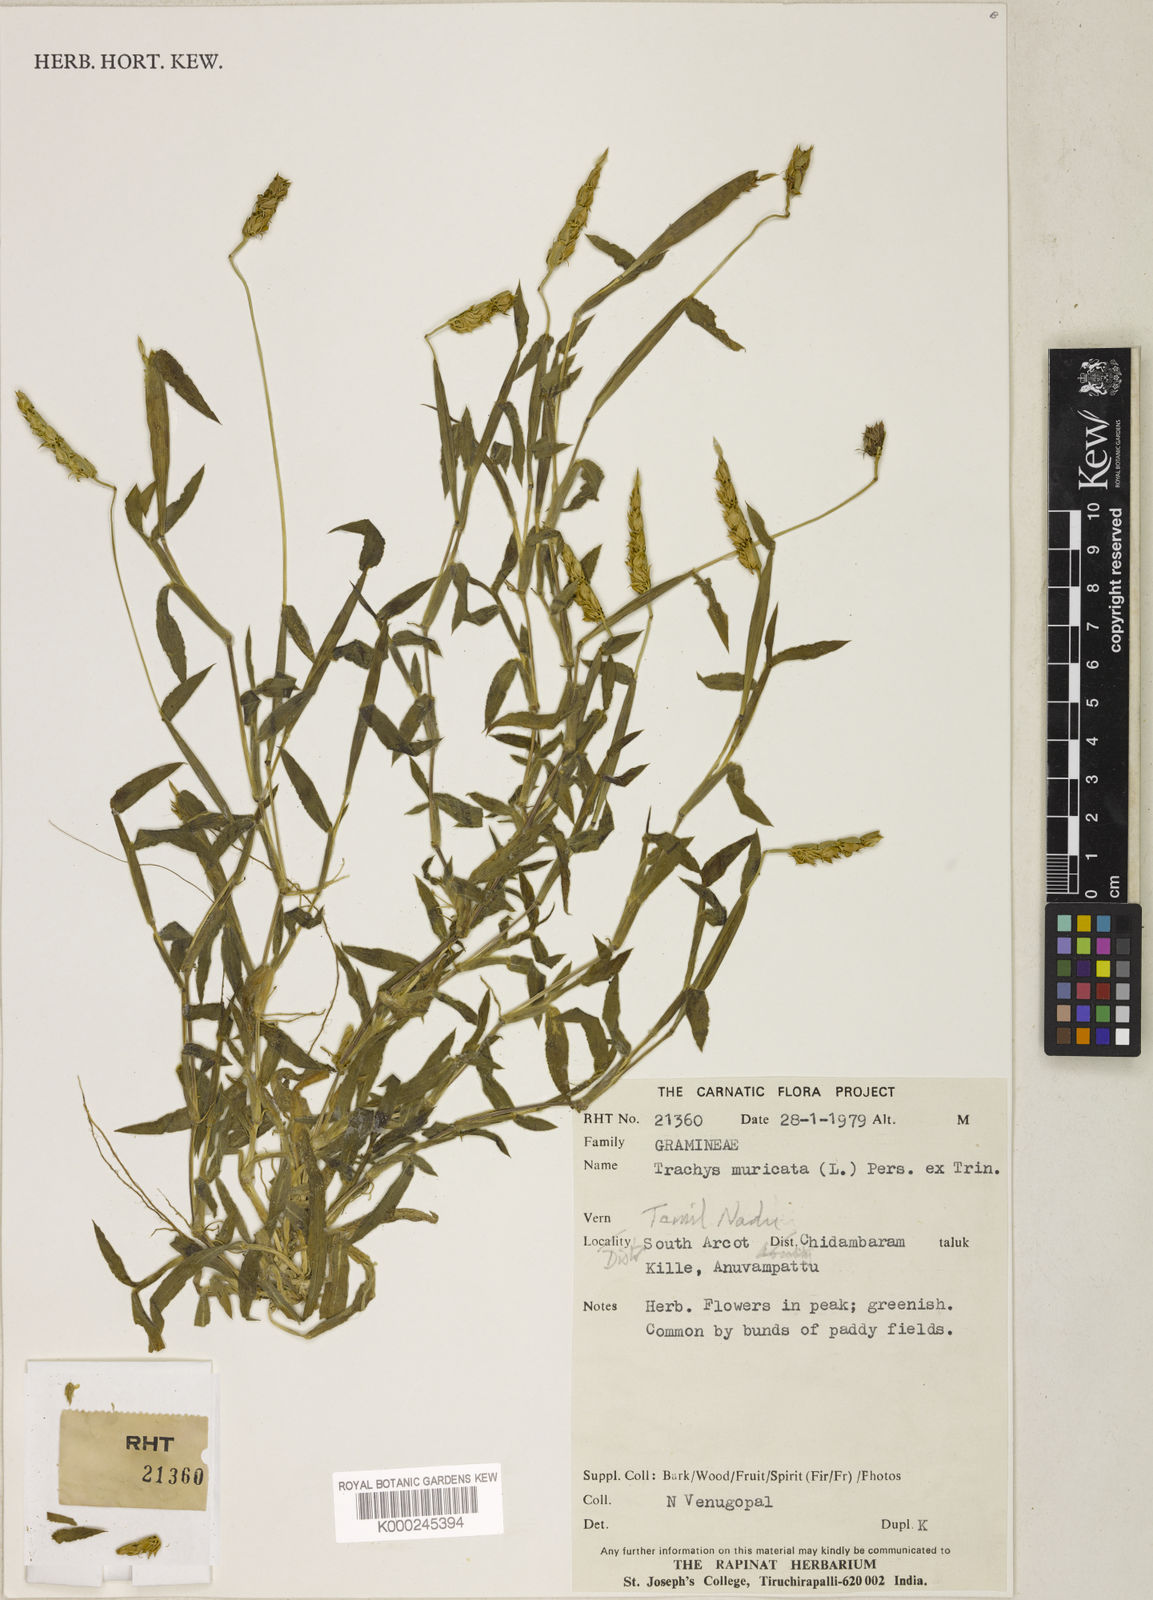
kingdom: Plantae
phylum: Tracheophyta
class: Liliopsida
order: Poales
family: Poaceae
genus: Trachys
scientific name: Trachys muricata
